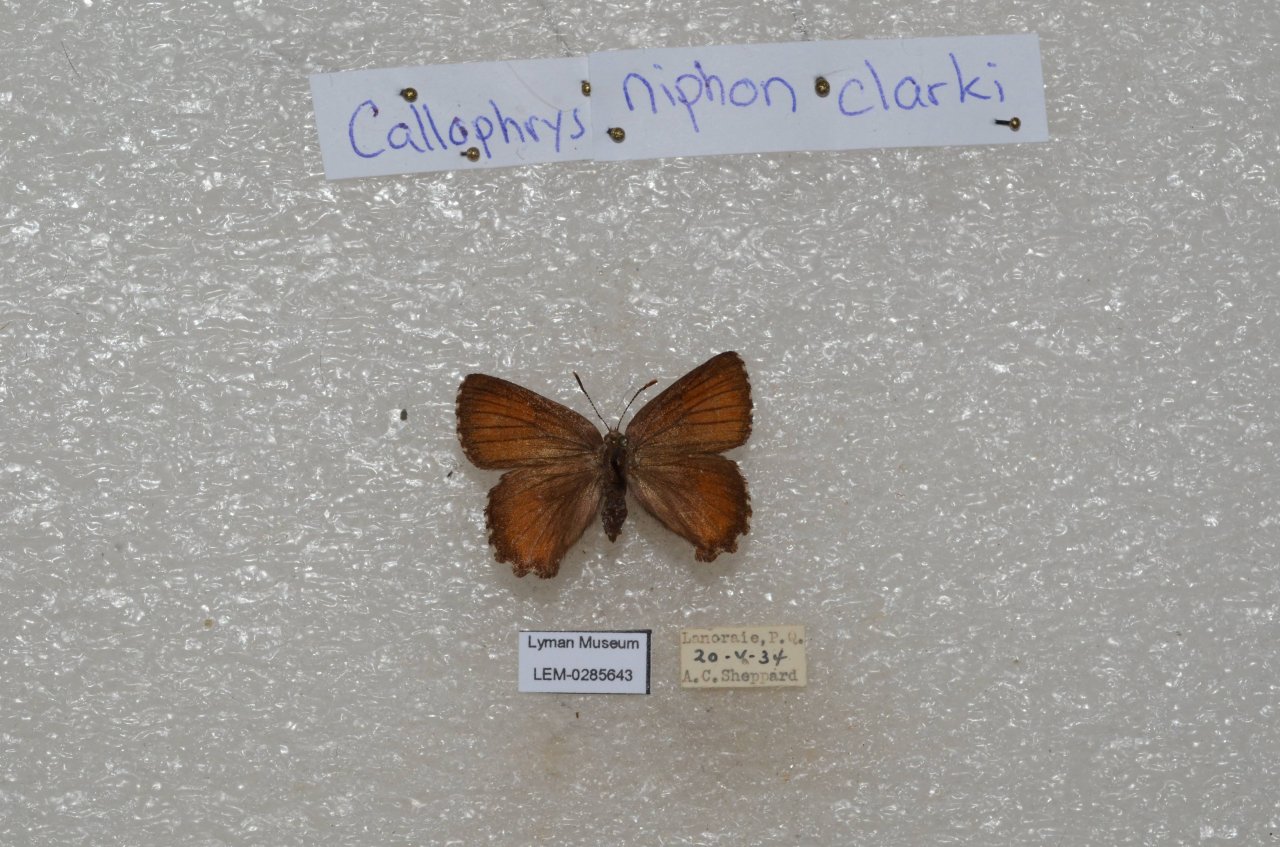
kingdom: Animalia
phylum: Arthropoda
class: Insecta
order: Lepidoptera
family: Lycaenidae
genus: Incisalia
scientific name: Incisalia niphon
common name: Eastern Pine Elfin
